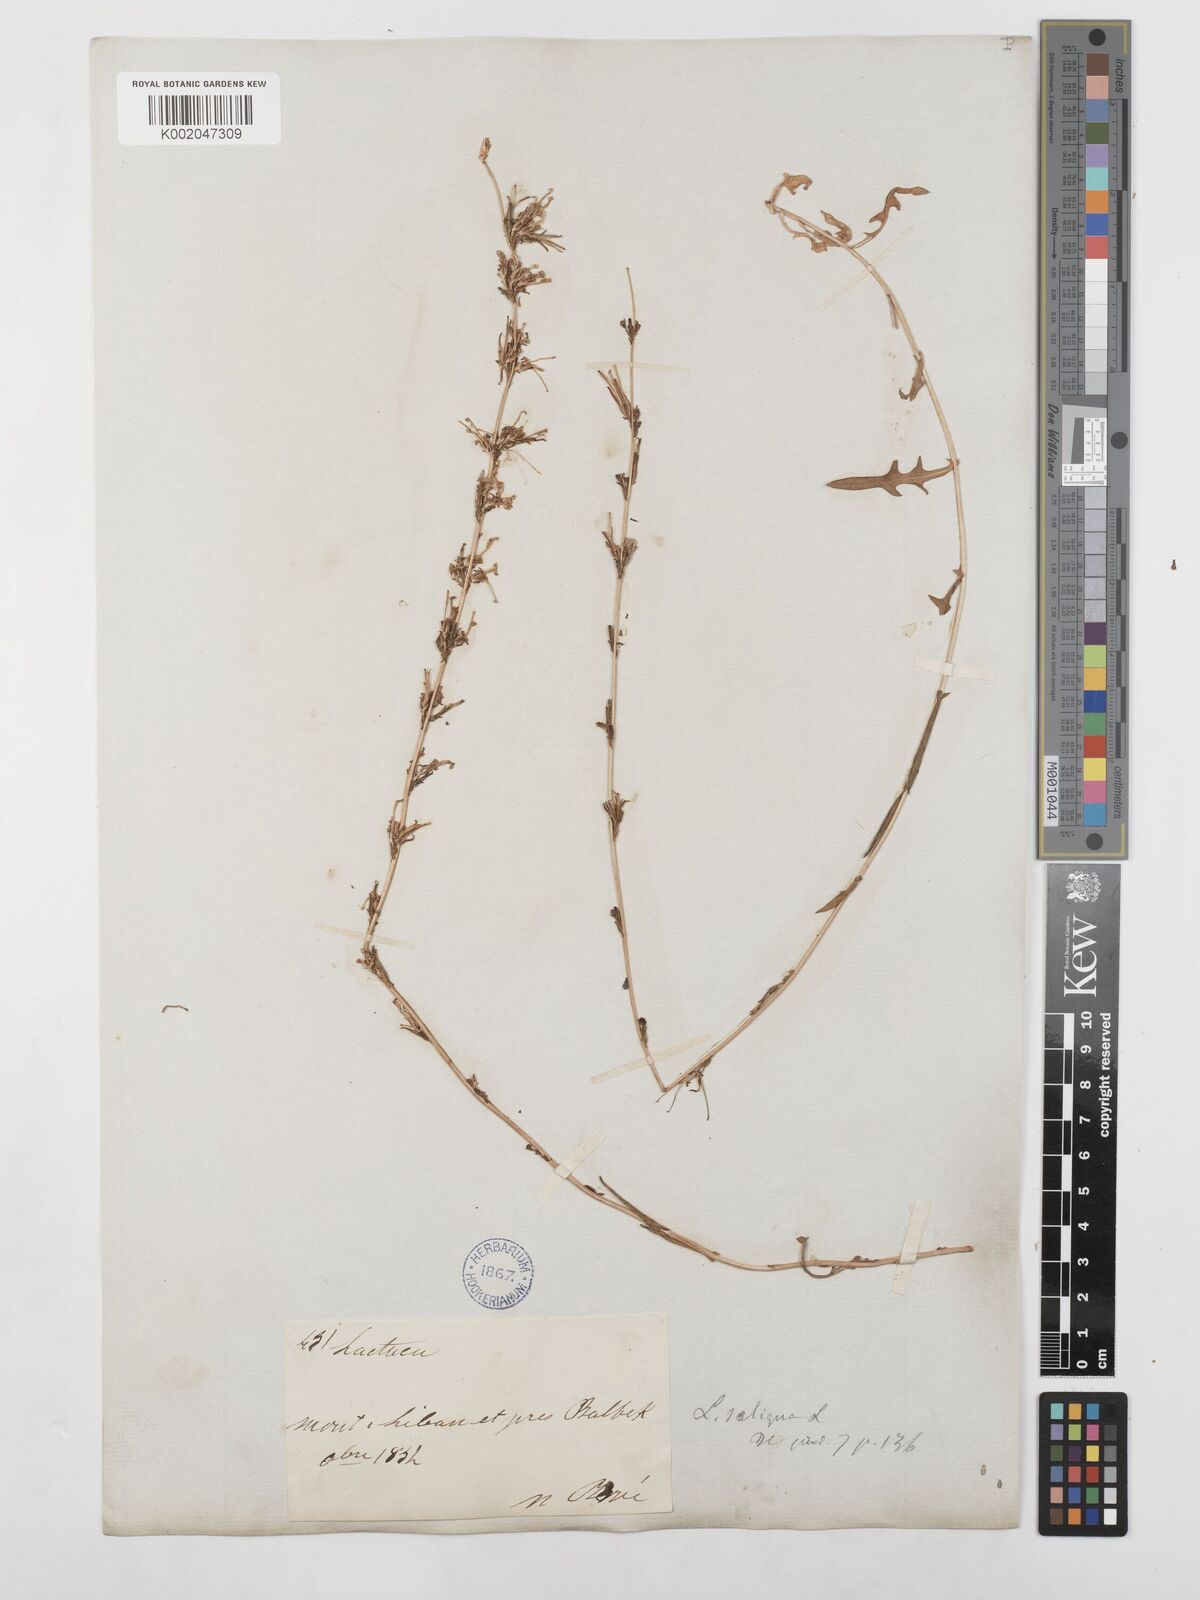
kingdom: Plantae
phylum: Tracheophyta
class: Magnoliopsida
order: Asterales
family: Asteraceae
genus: Lactuca
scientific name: Lactuca saligna
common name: Wild lettuce
